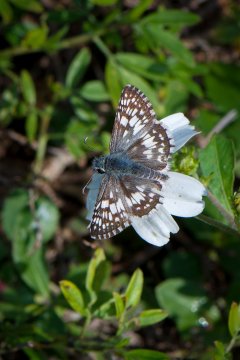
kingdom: Animalia
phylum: Arthropoda
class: Insecta
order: Lepidoptera
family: Hesperiidae
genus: Pyrgus
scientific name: Pyrgus communis
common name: White Checkered-Skipper
